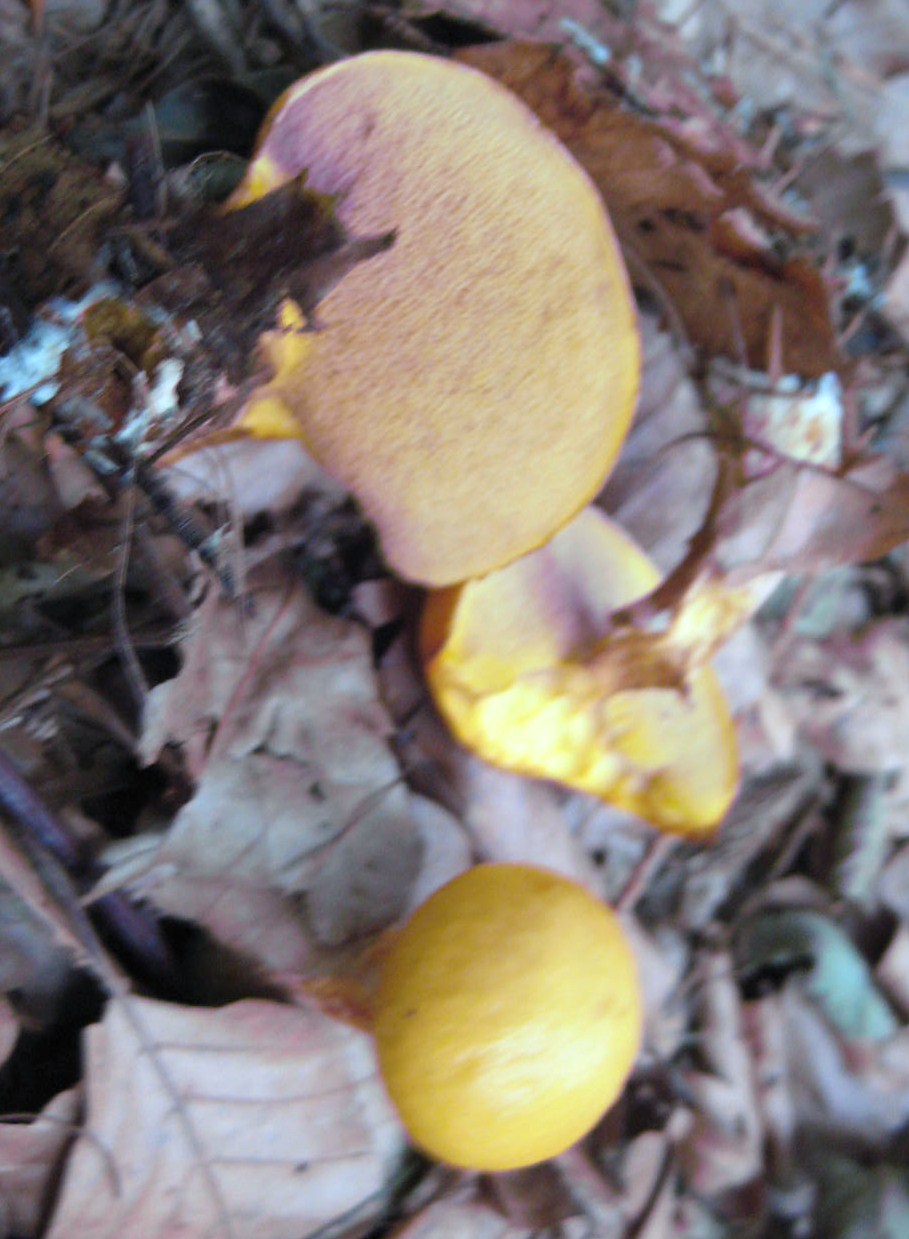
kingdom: Fungi
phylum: Basidiomycota
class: Agaricomycetes
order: Boletales
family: Suillaceae
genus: Suillus
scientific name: Suillus grevillei
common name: lærke-slimrørhat
